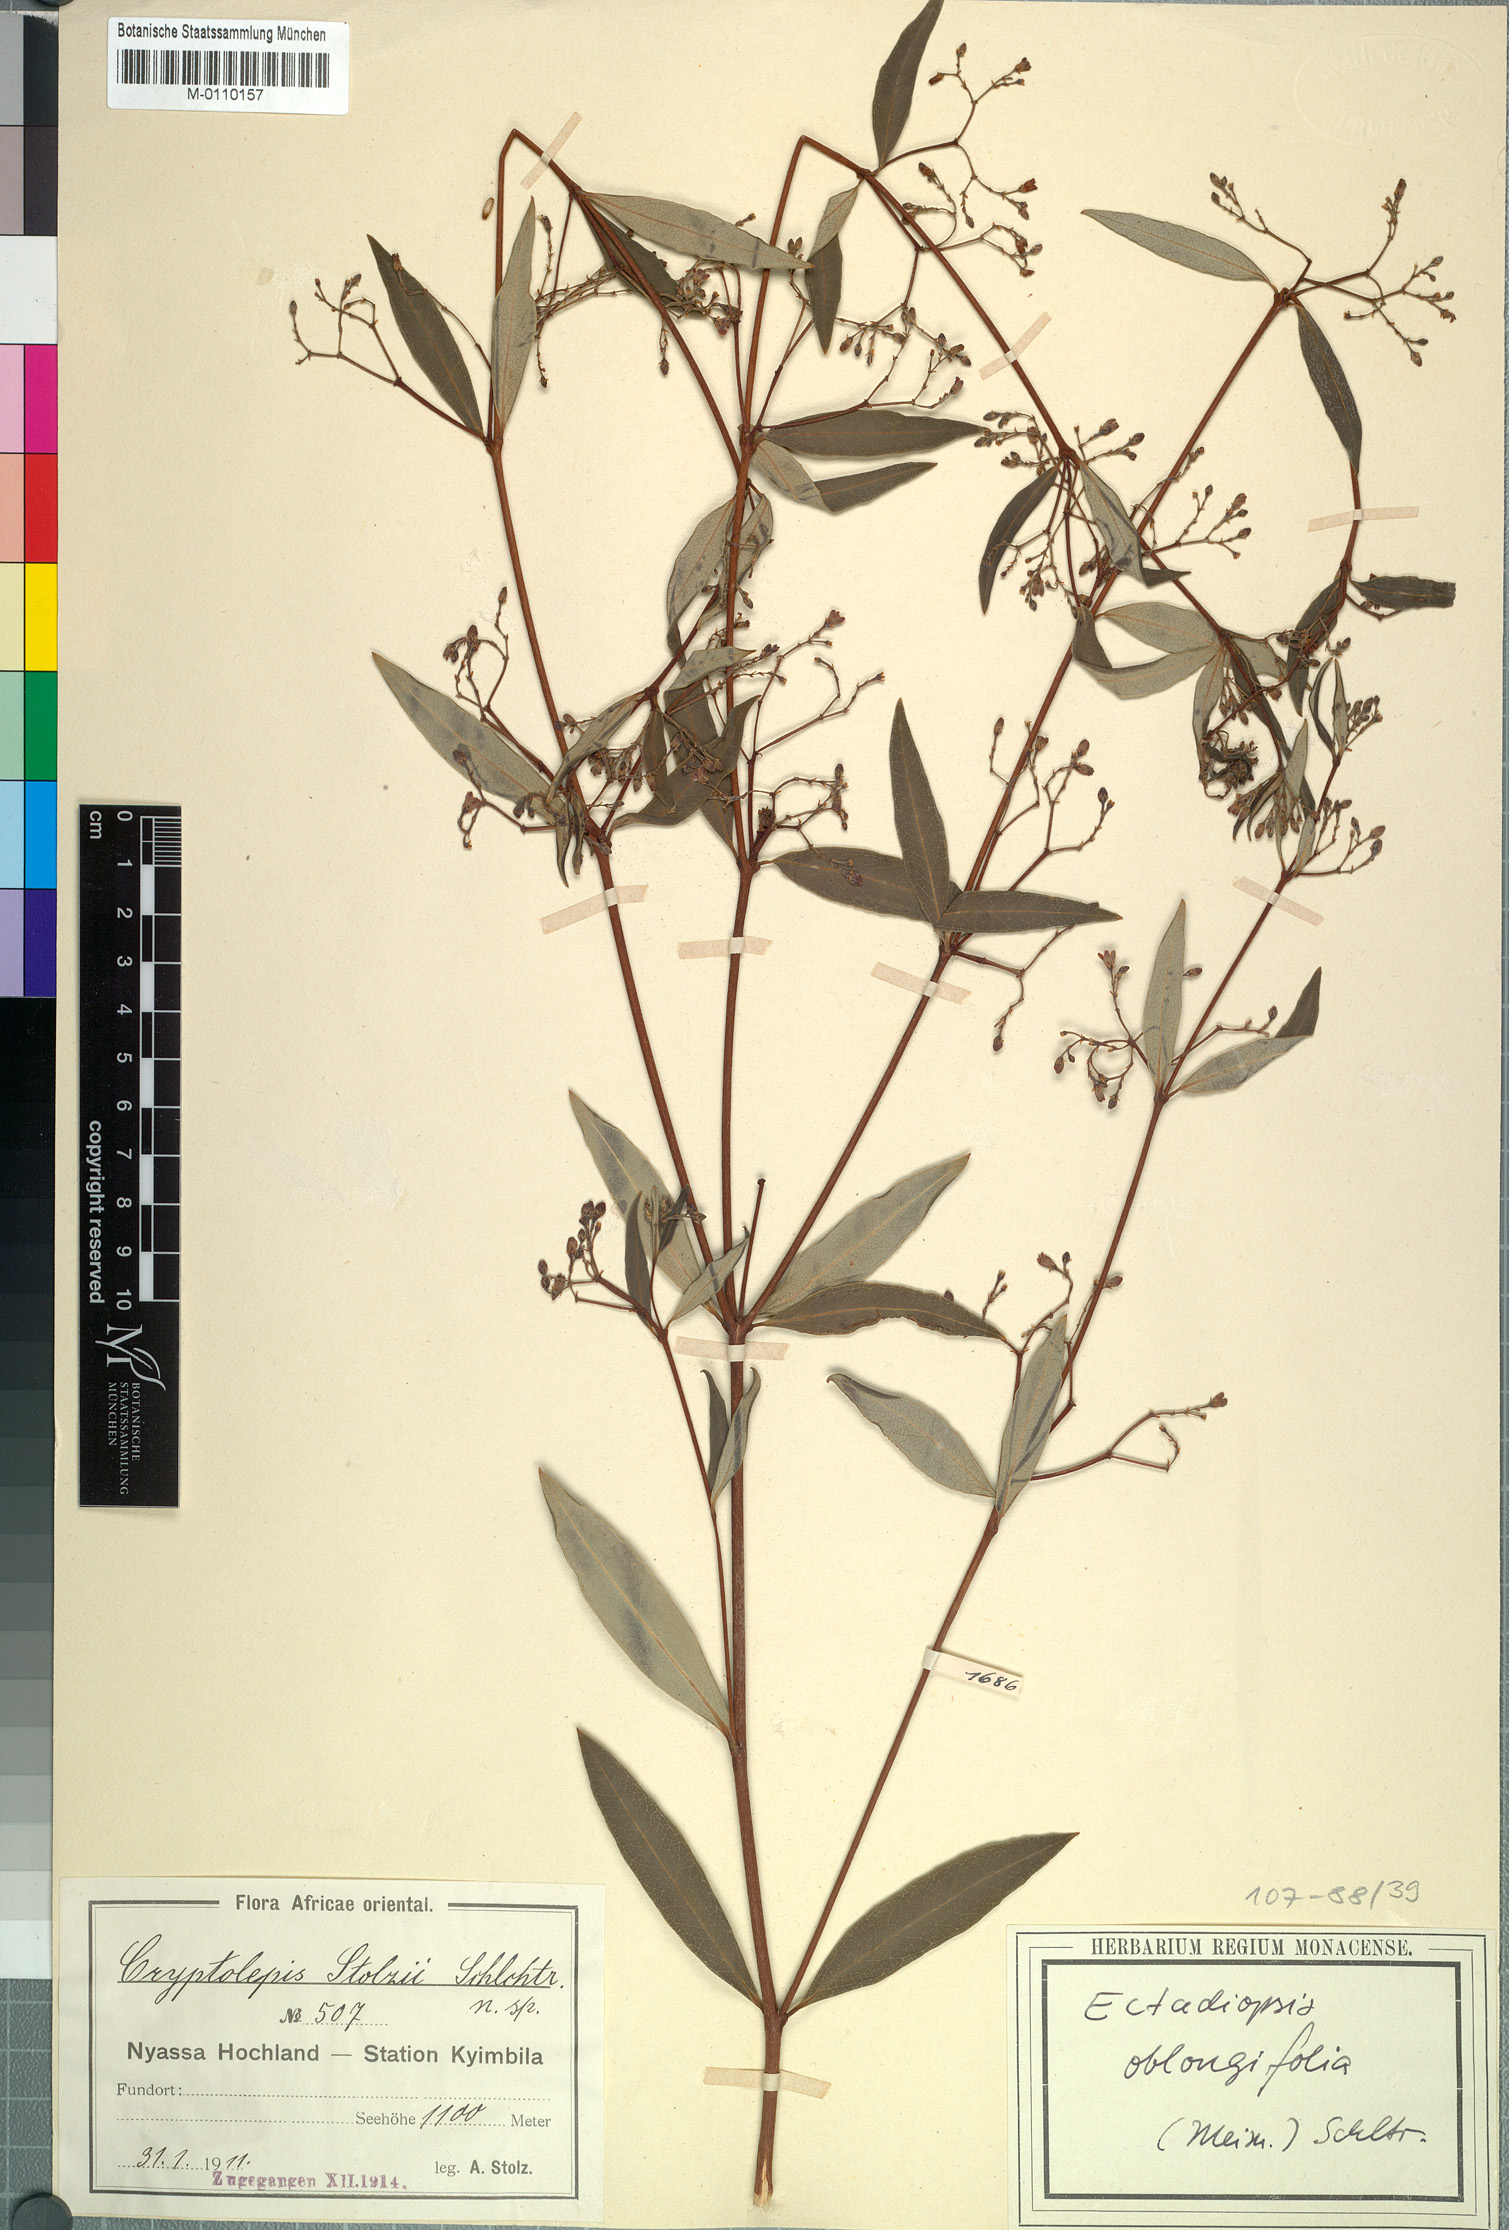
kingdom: Plantae
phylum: Tracheophyta
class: Magnoliopsida
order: Gentianales
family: Apocynaceae
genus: Cryptolepis
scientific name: Cryptolepis oblongifolia
